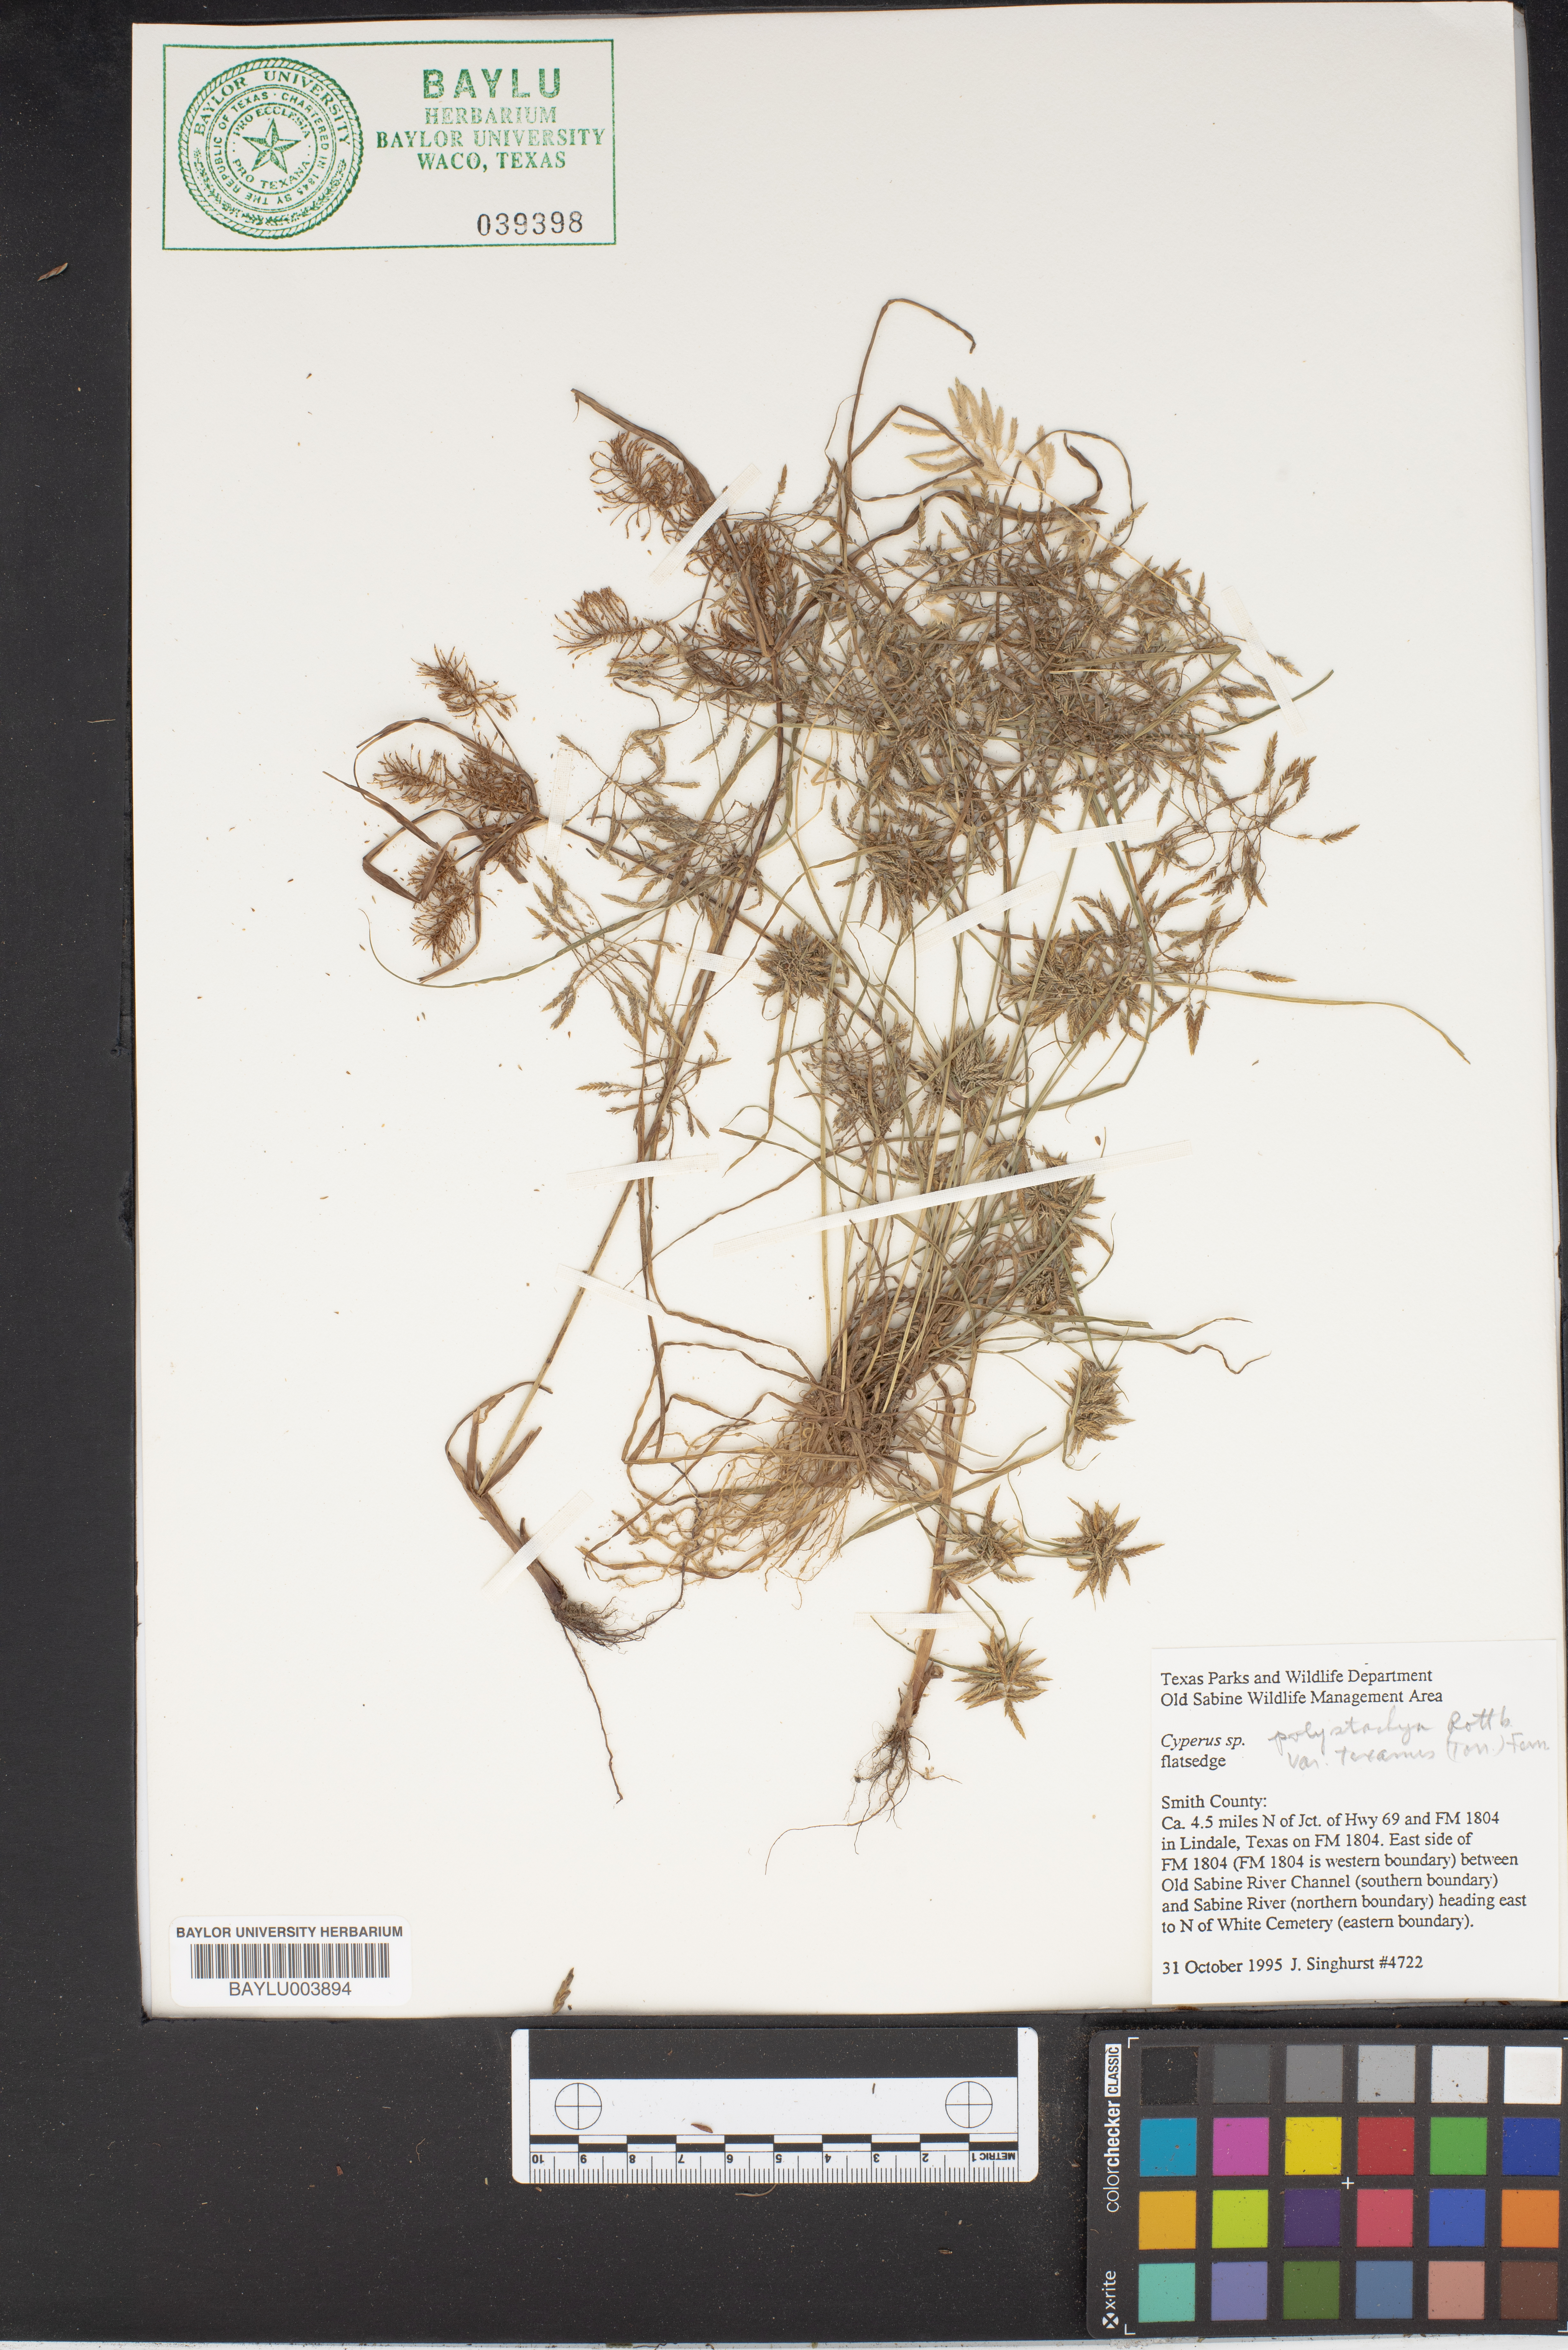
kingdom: Plantae
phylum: Tracheophyta
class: Liliopsida
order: Poales
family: Cyperaceae
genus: Cyperus
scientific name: Cyperus polystachyos
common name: Bunchy flat sedge
